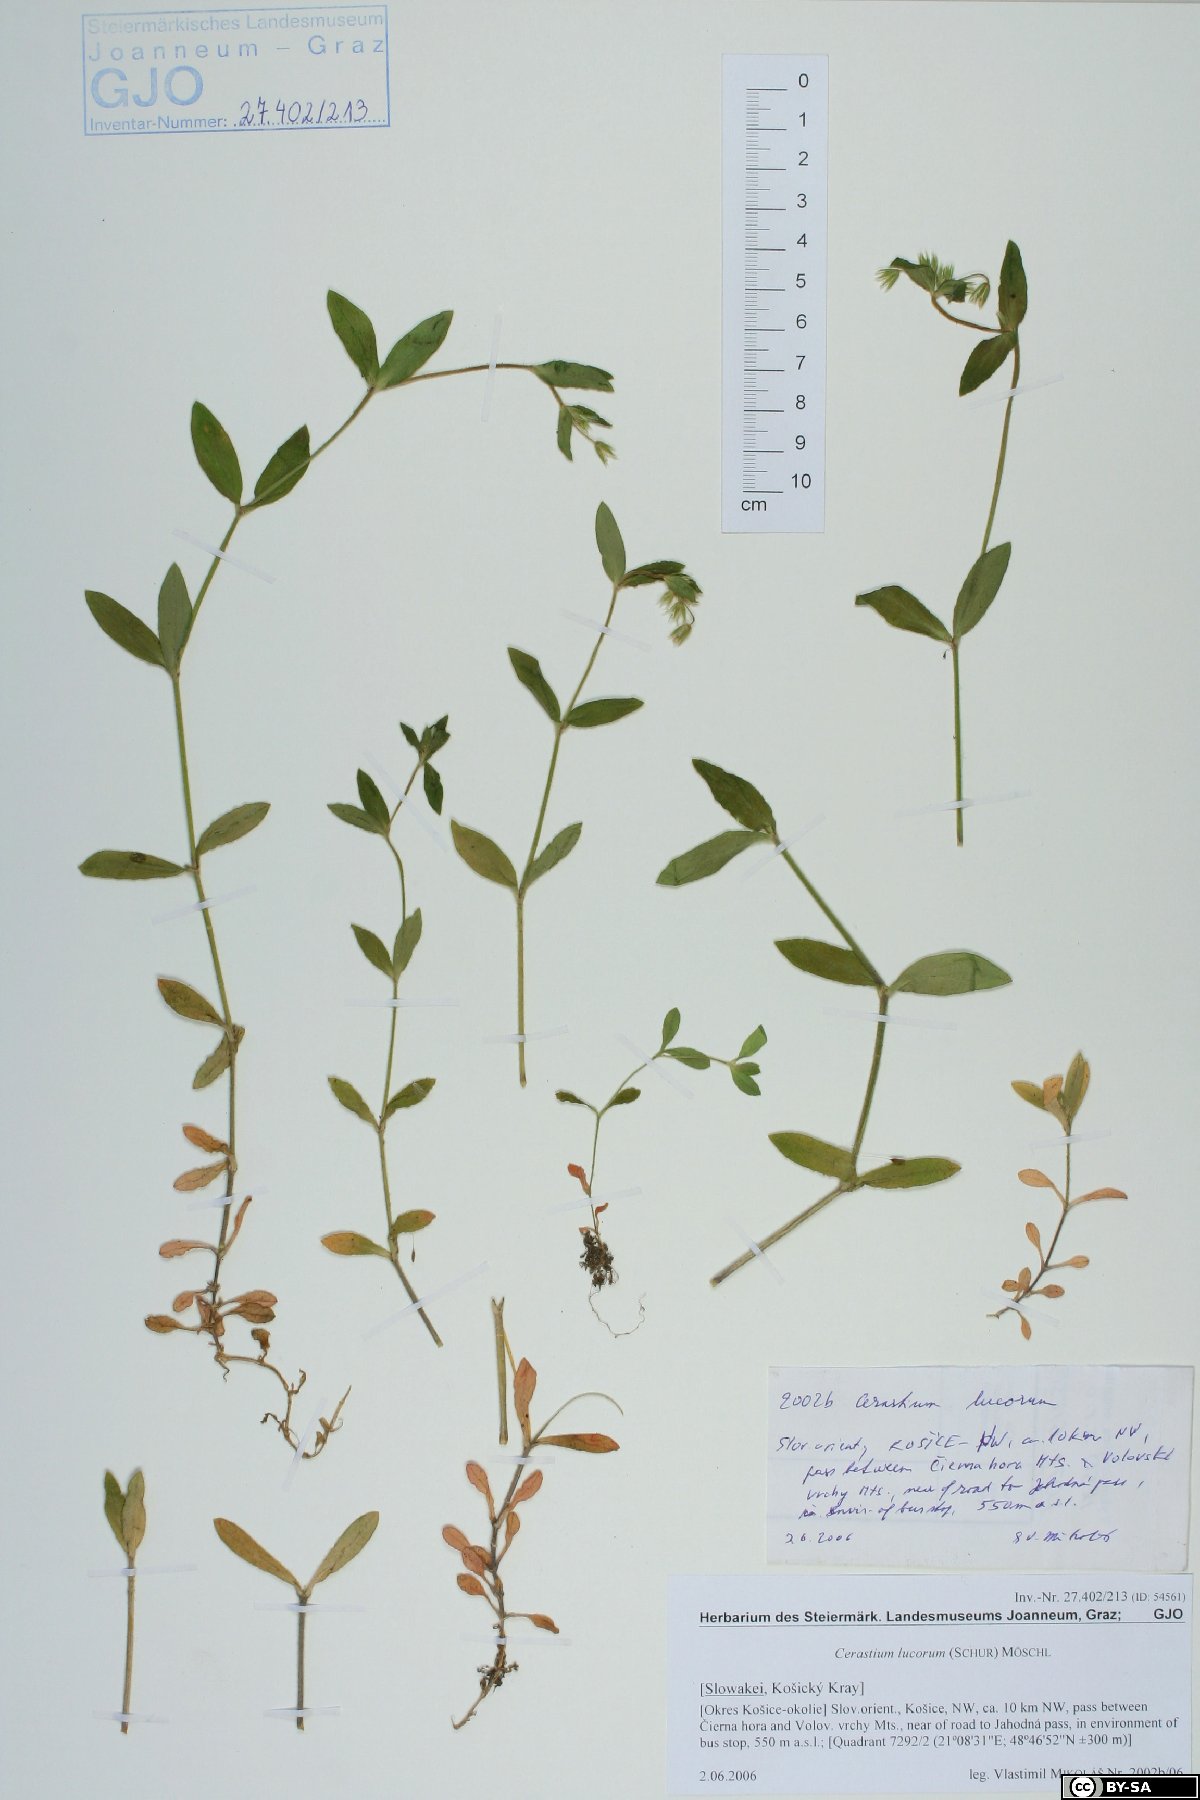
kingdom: Plantae
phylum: Tracheophyta
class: Magnoliopsida
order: Caryophyllales
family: Caryophyllaceae
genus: Cerastium
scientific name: Cerastium lucorum
